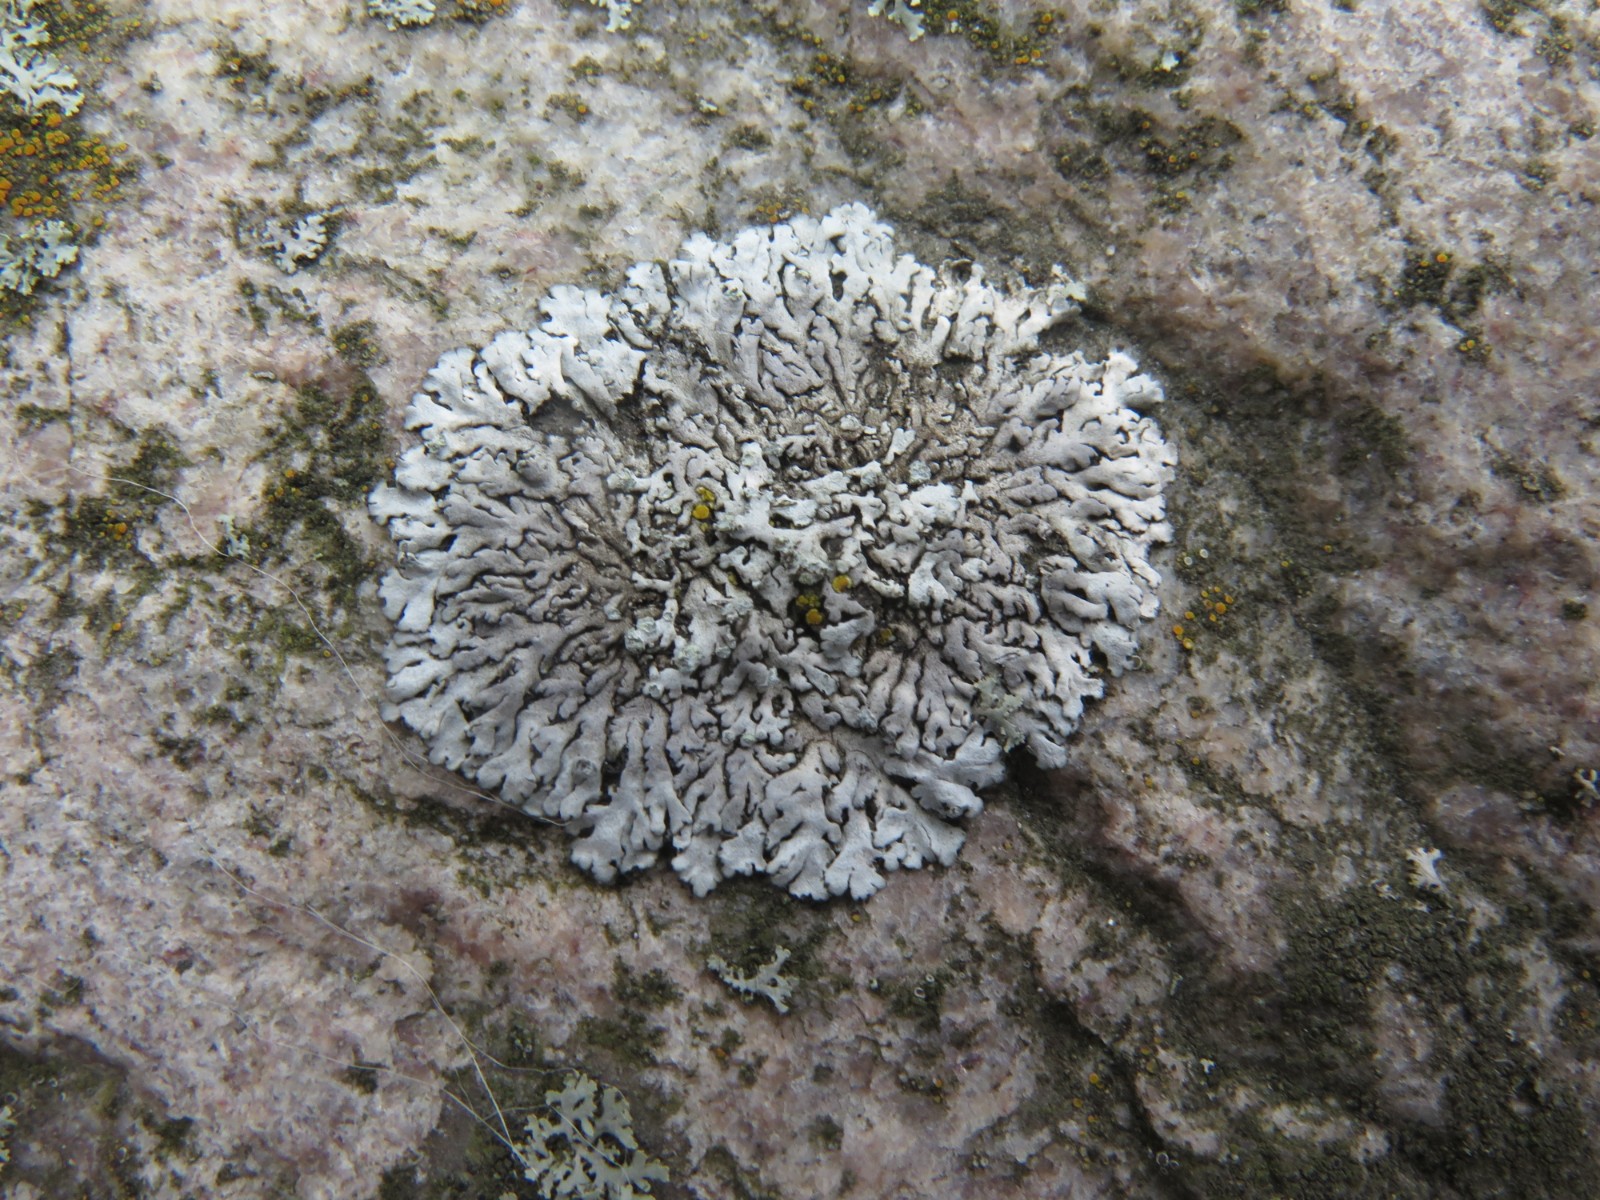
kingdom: Fungi
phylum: Ascomycota
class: Lecanoromycetes
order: Caliciales
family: Physciaceae
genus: Physcia
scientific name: Physcia caesia
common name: blågrå rosetlav
